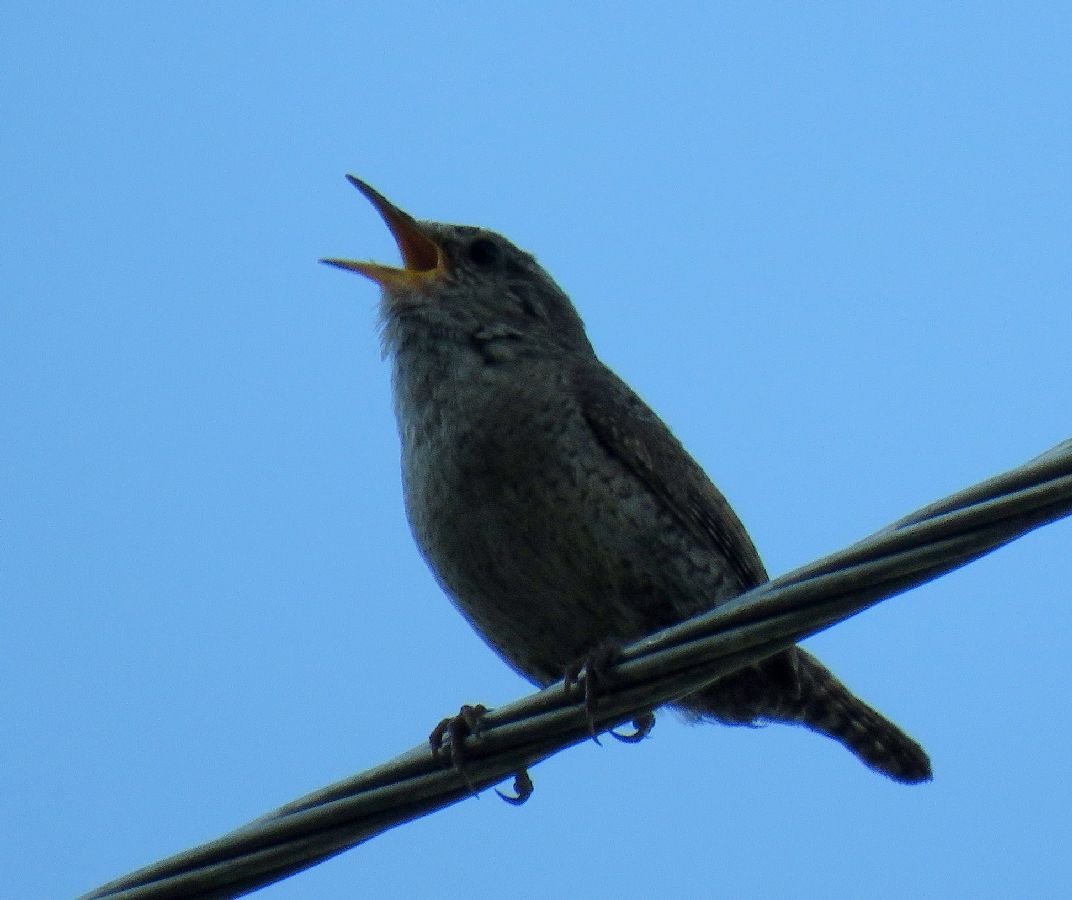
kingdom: Animalia
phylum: Chordata
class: Aves
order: Passeriformes
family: Troglodytidae
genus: Troglodytes
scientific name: Troglodytes troglodytes
